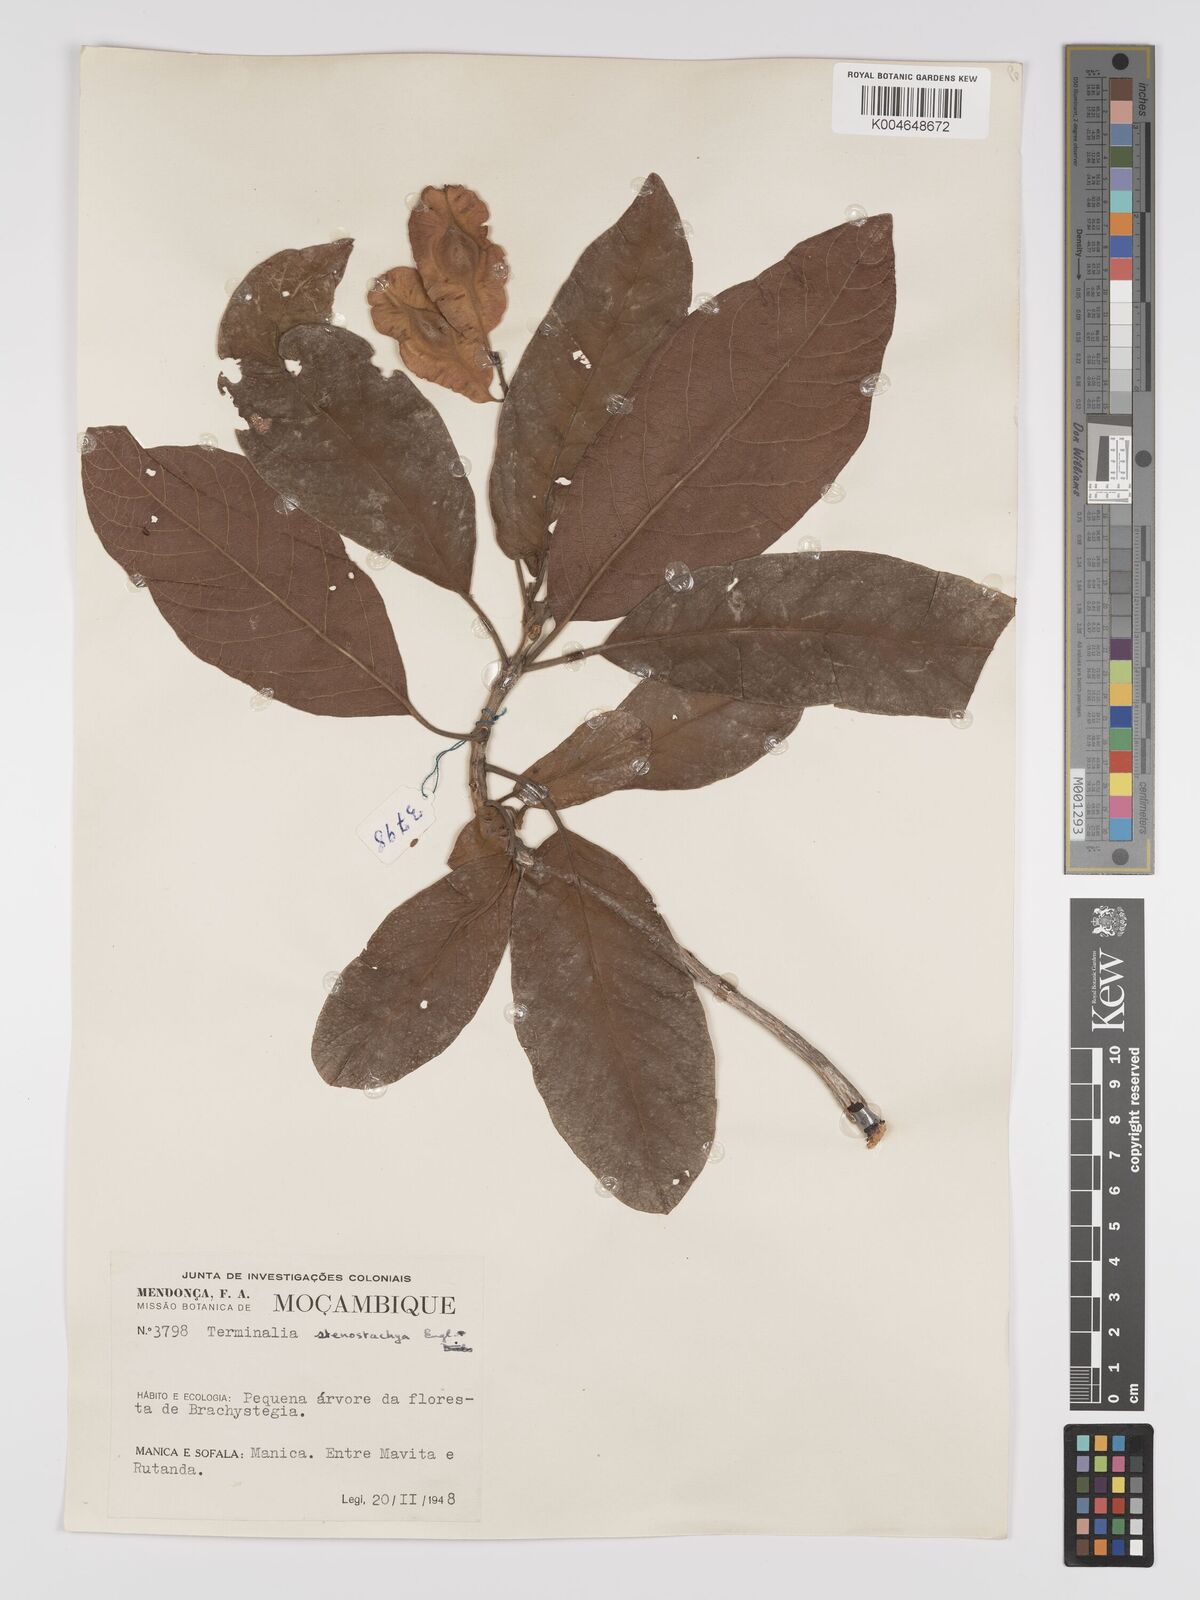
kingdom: Plantae
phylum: Tracheophyta
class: Magnoliopsida
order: Myrtales
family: Combretaceae
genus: Terminalia
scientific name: Terminalia stenostachya
